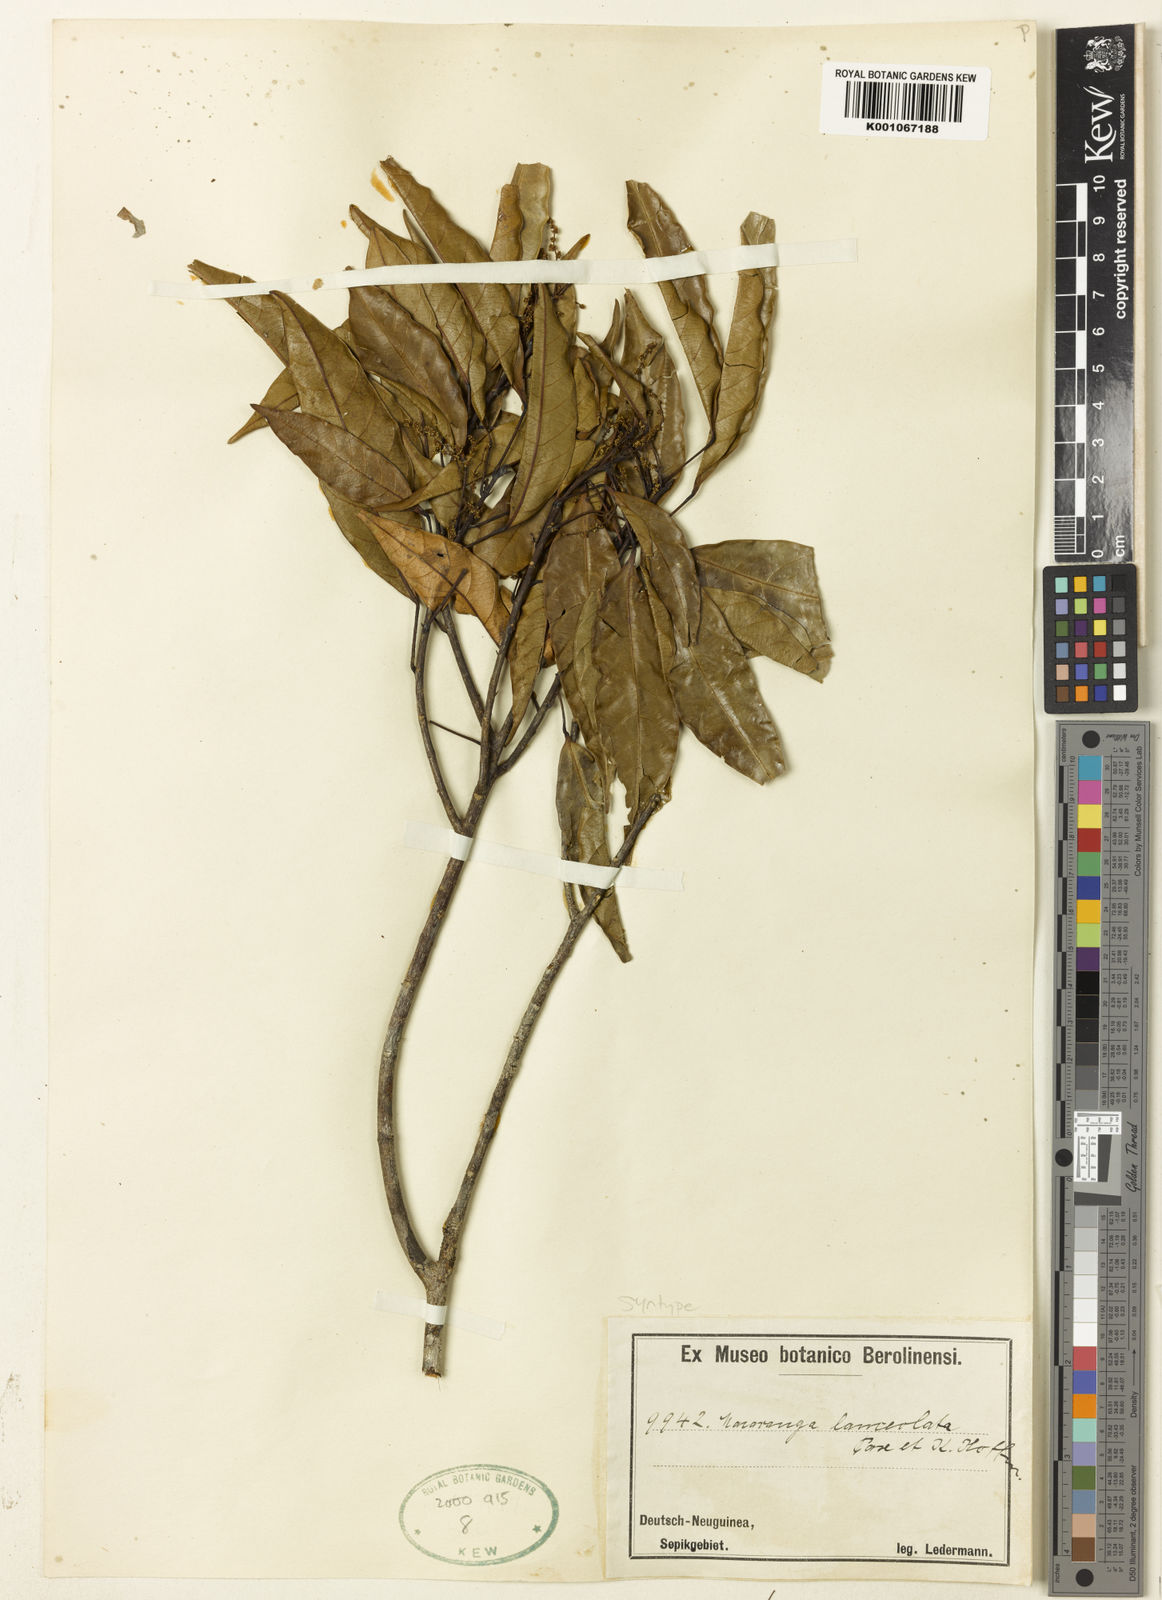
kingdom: Plantae
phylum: Tracheophyta
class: Magnoliopsida
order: Malpighiales
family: Euphorbiaceae
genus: Macaranga
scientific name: Macaranga lanceolata
